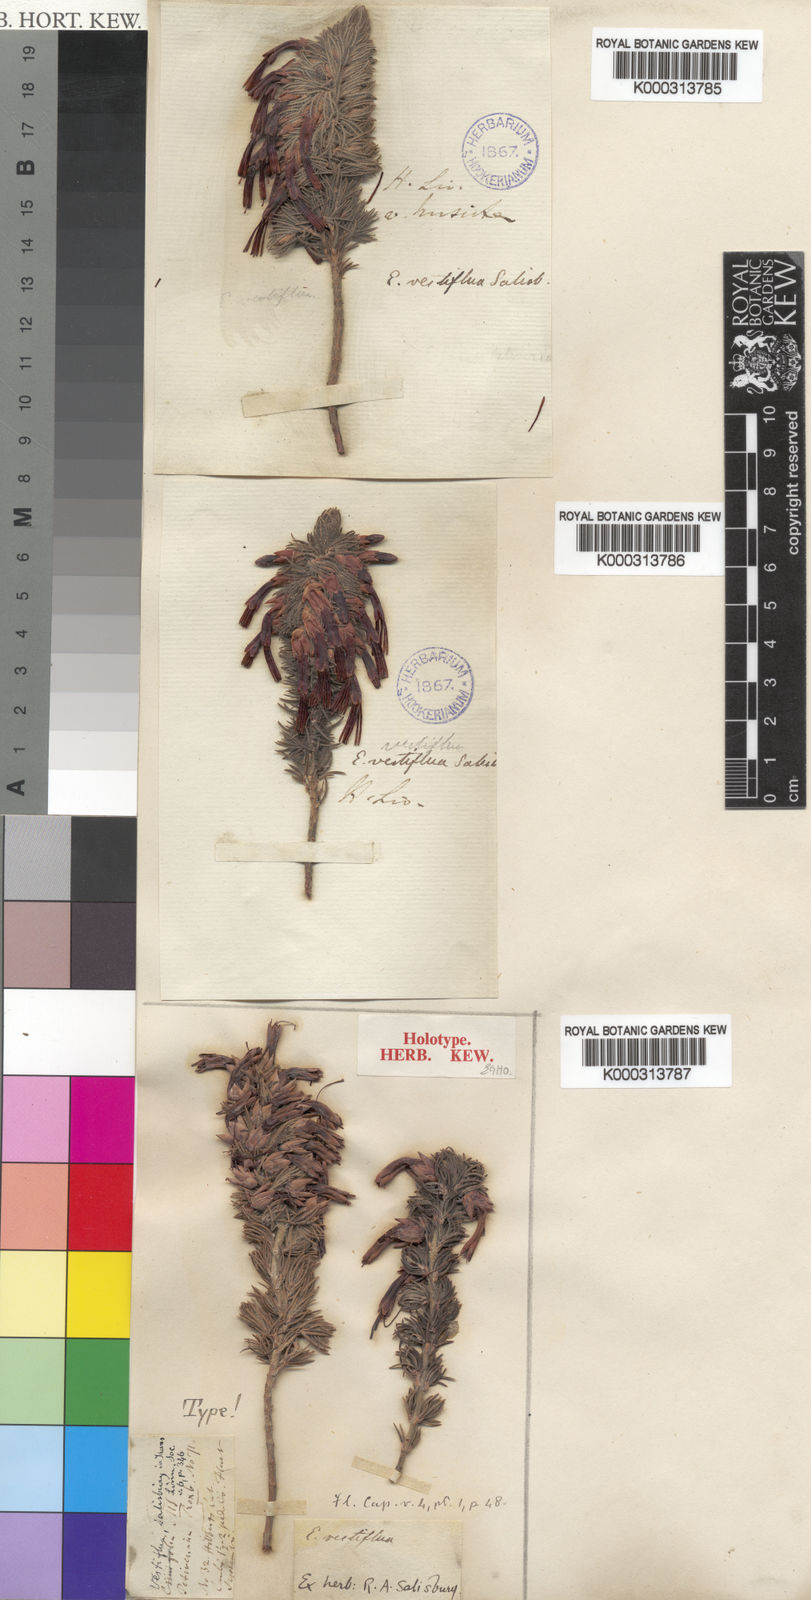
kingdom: Plantae
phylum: Tracheophyta
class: Magnoliopsida
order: Ericales
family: Ericaceae
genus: Erica
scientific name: Erica melastoma
